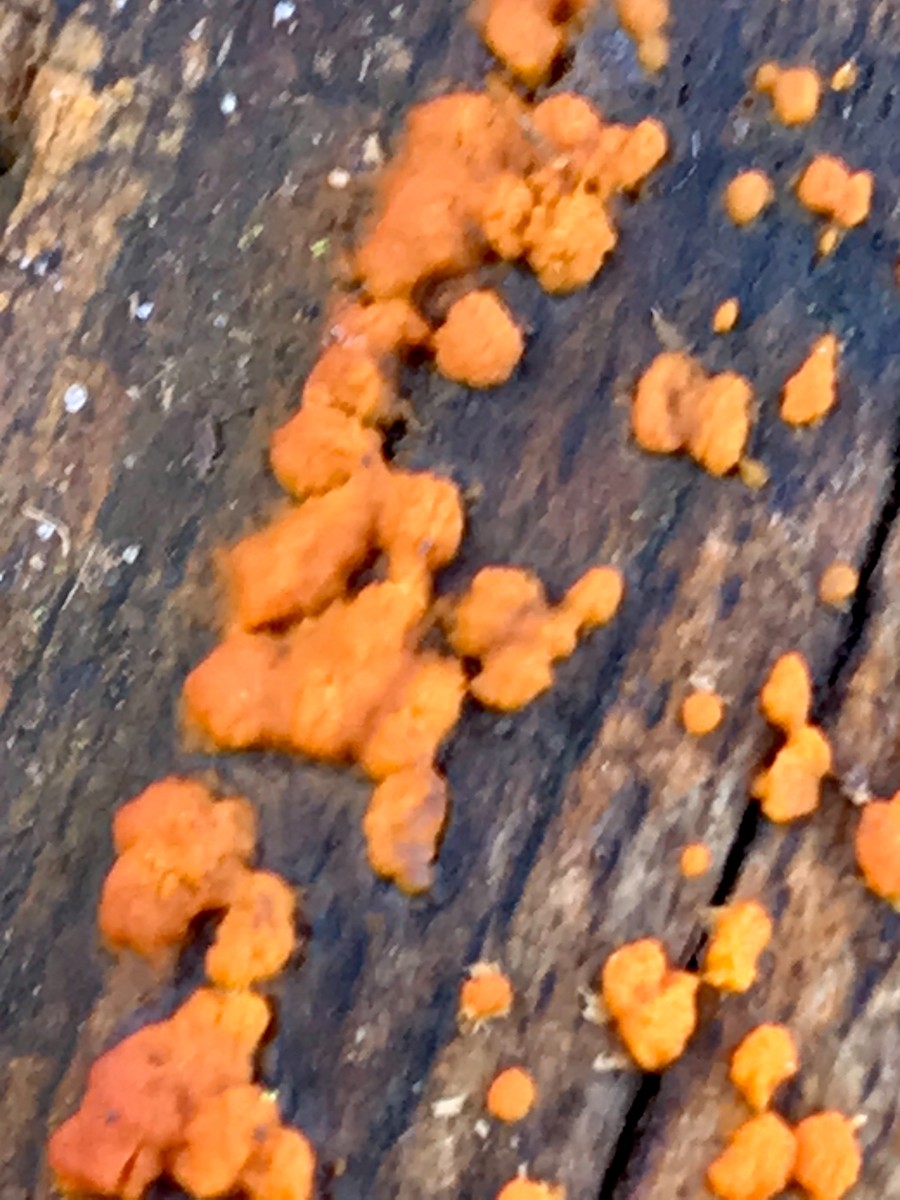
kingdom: Fungi
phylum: Basidiomycota
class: Dacrymycetes
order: Dacrymycetales
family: Dacrymycetaceae
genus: Dacrymyces
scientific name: Dacrymyces stillatus
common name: almindelig tåresvamp
